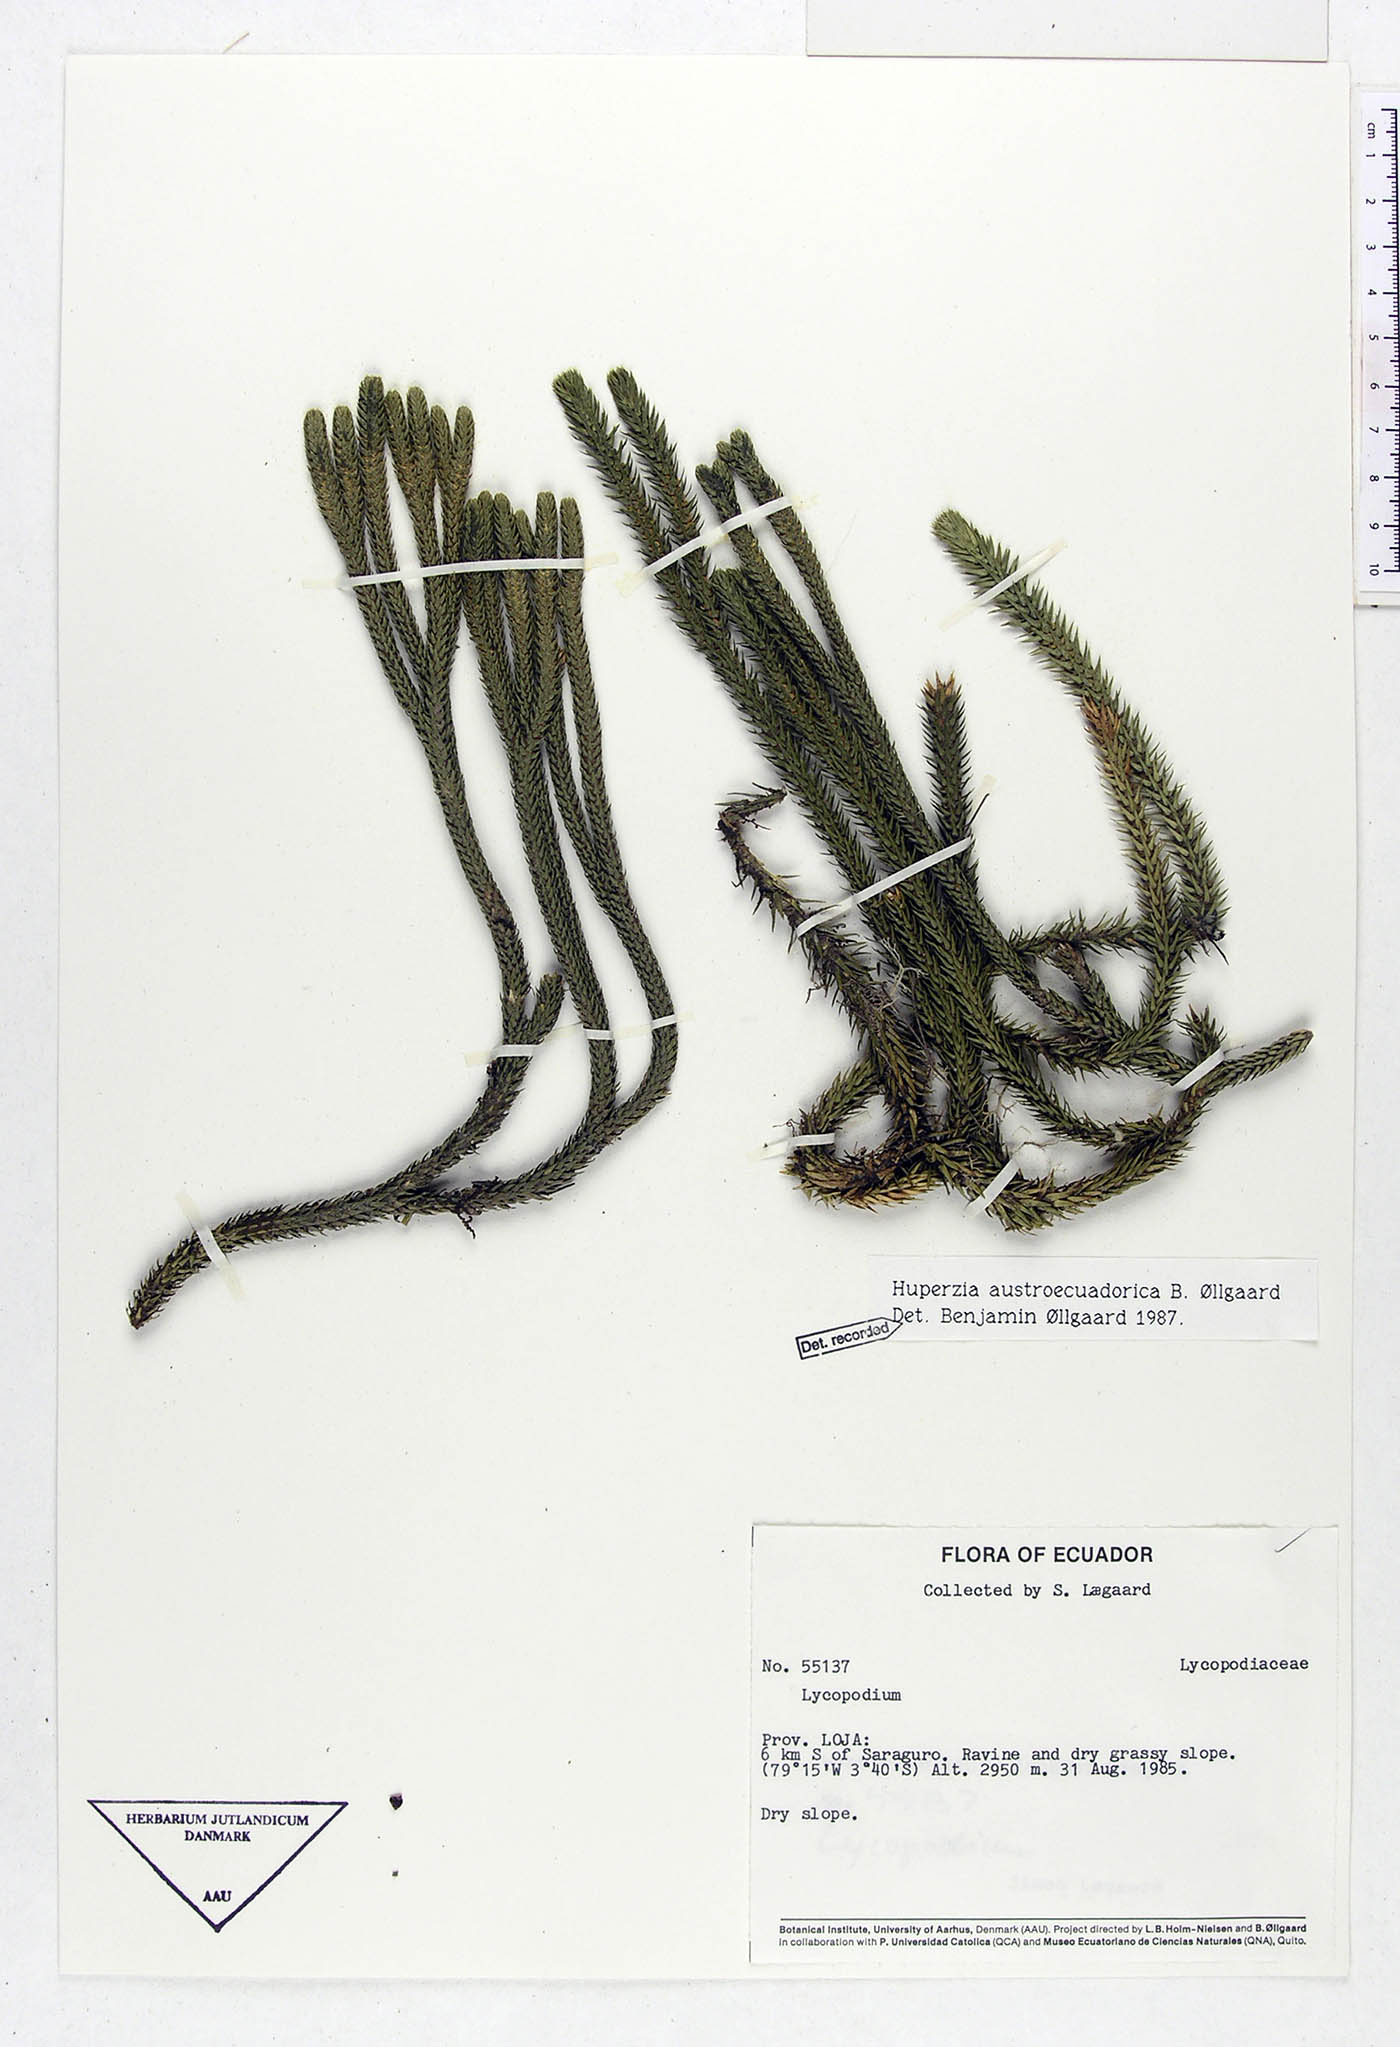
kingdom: Plantae
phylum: Tracheophyta
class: Lycopodiopsida
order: Lycopodiales
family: Lycopodiaceae
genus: Phlegmariurus
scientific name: Phlegmariurus austroecuadoricus
